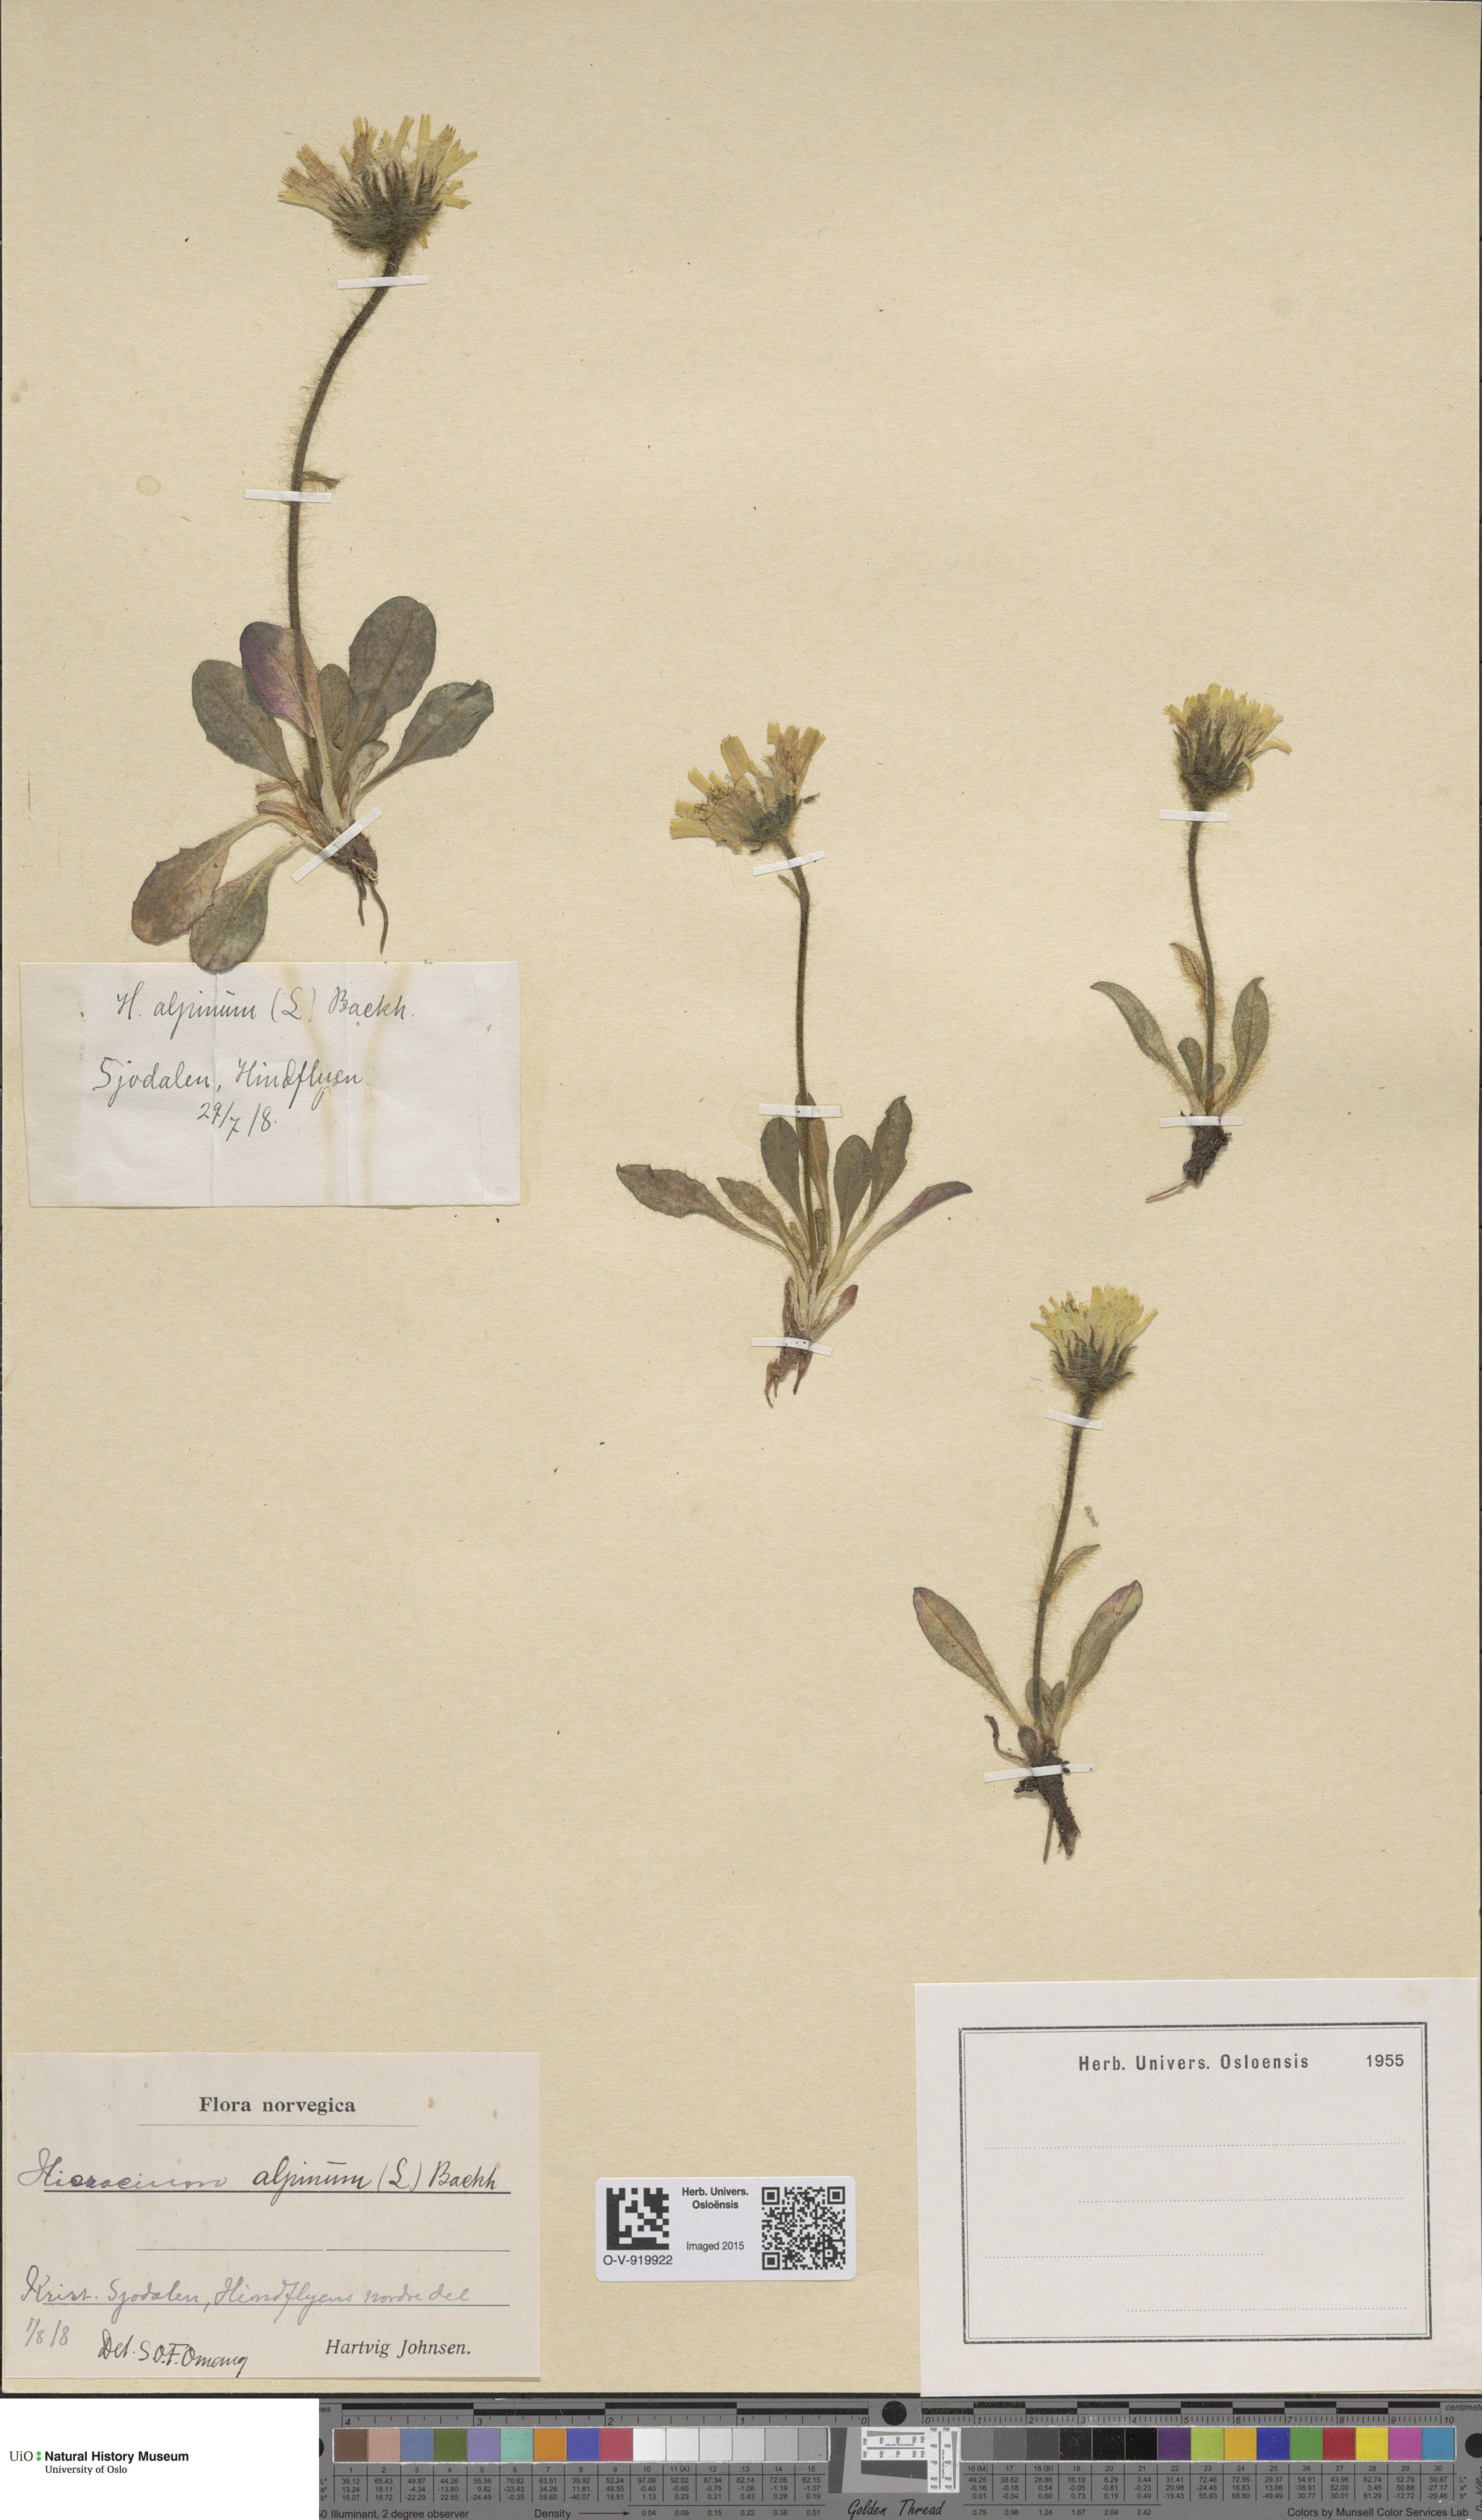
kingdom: Plantae
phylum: Tracheophyta
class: Magnoliopsida
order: Asterales
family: Asteraceae
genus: Hieracium
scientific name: Hieracium alpinum
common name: Alpine hawkweed
